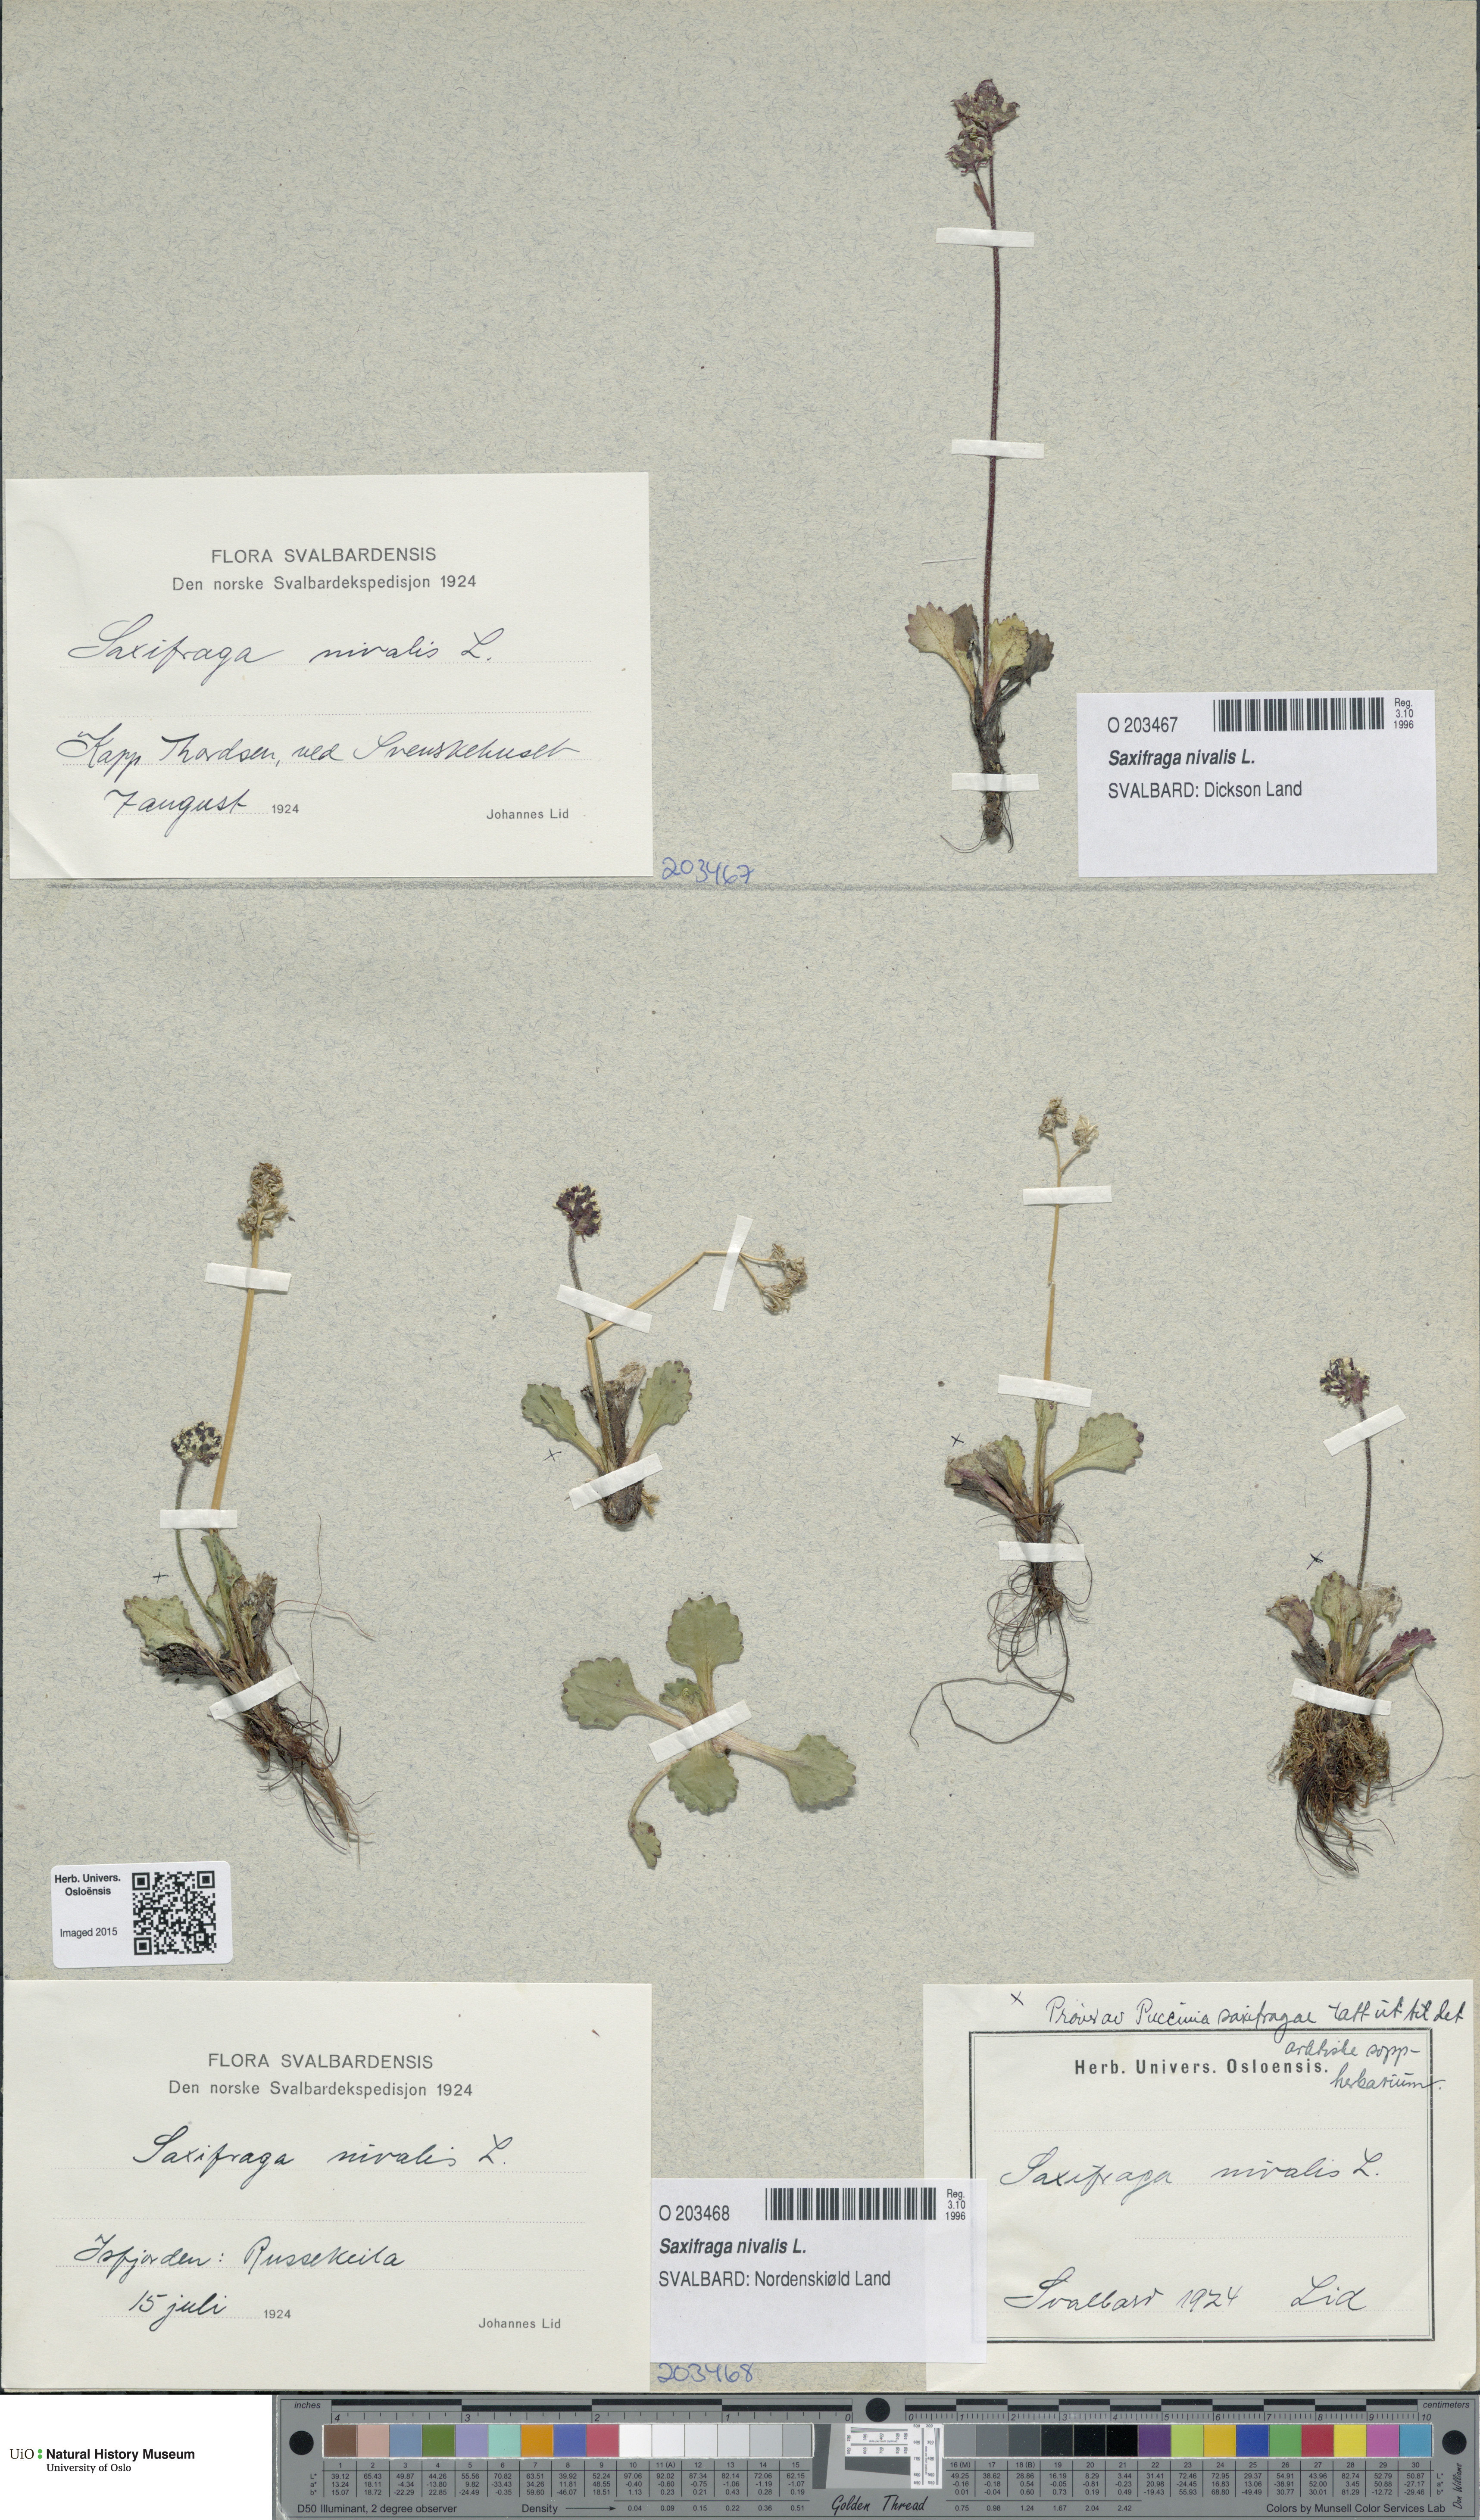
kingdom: Plantae
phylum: Tracheophyta
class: Magnoliopsida
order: Saxifragales
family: Saxifragaceae
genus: Micranthes
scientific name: Micranthes nivalis
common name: Alpine saxifrage
